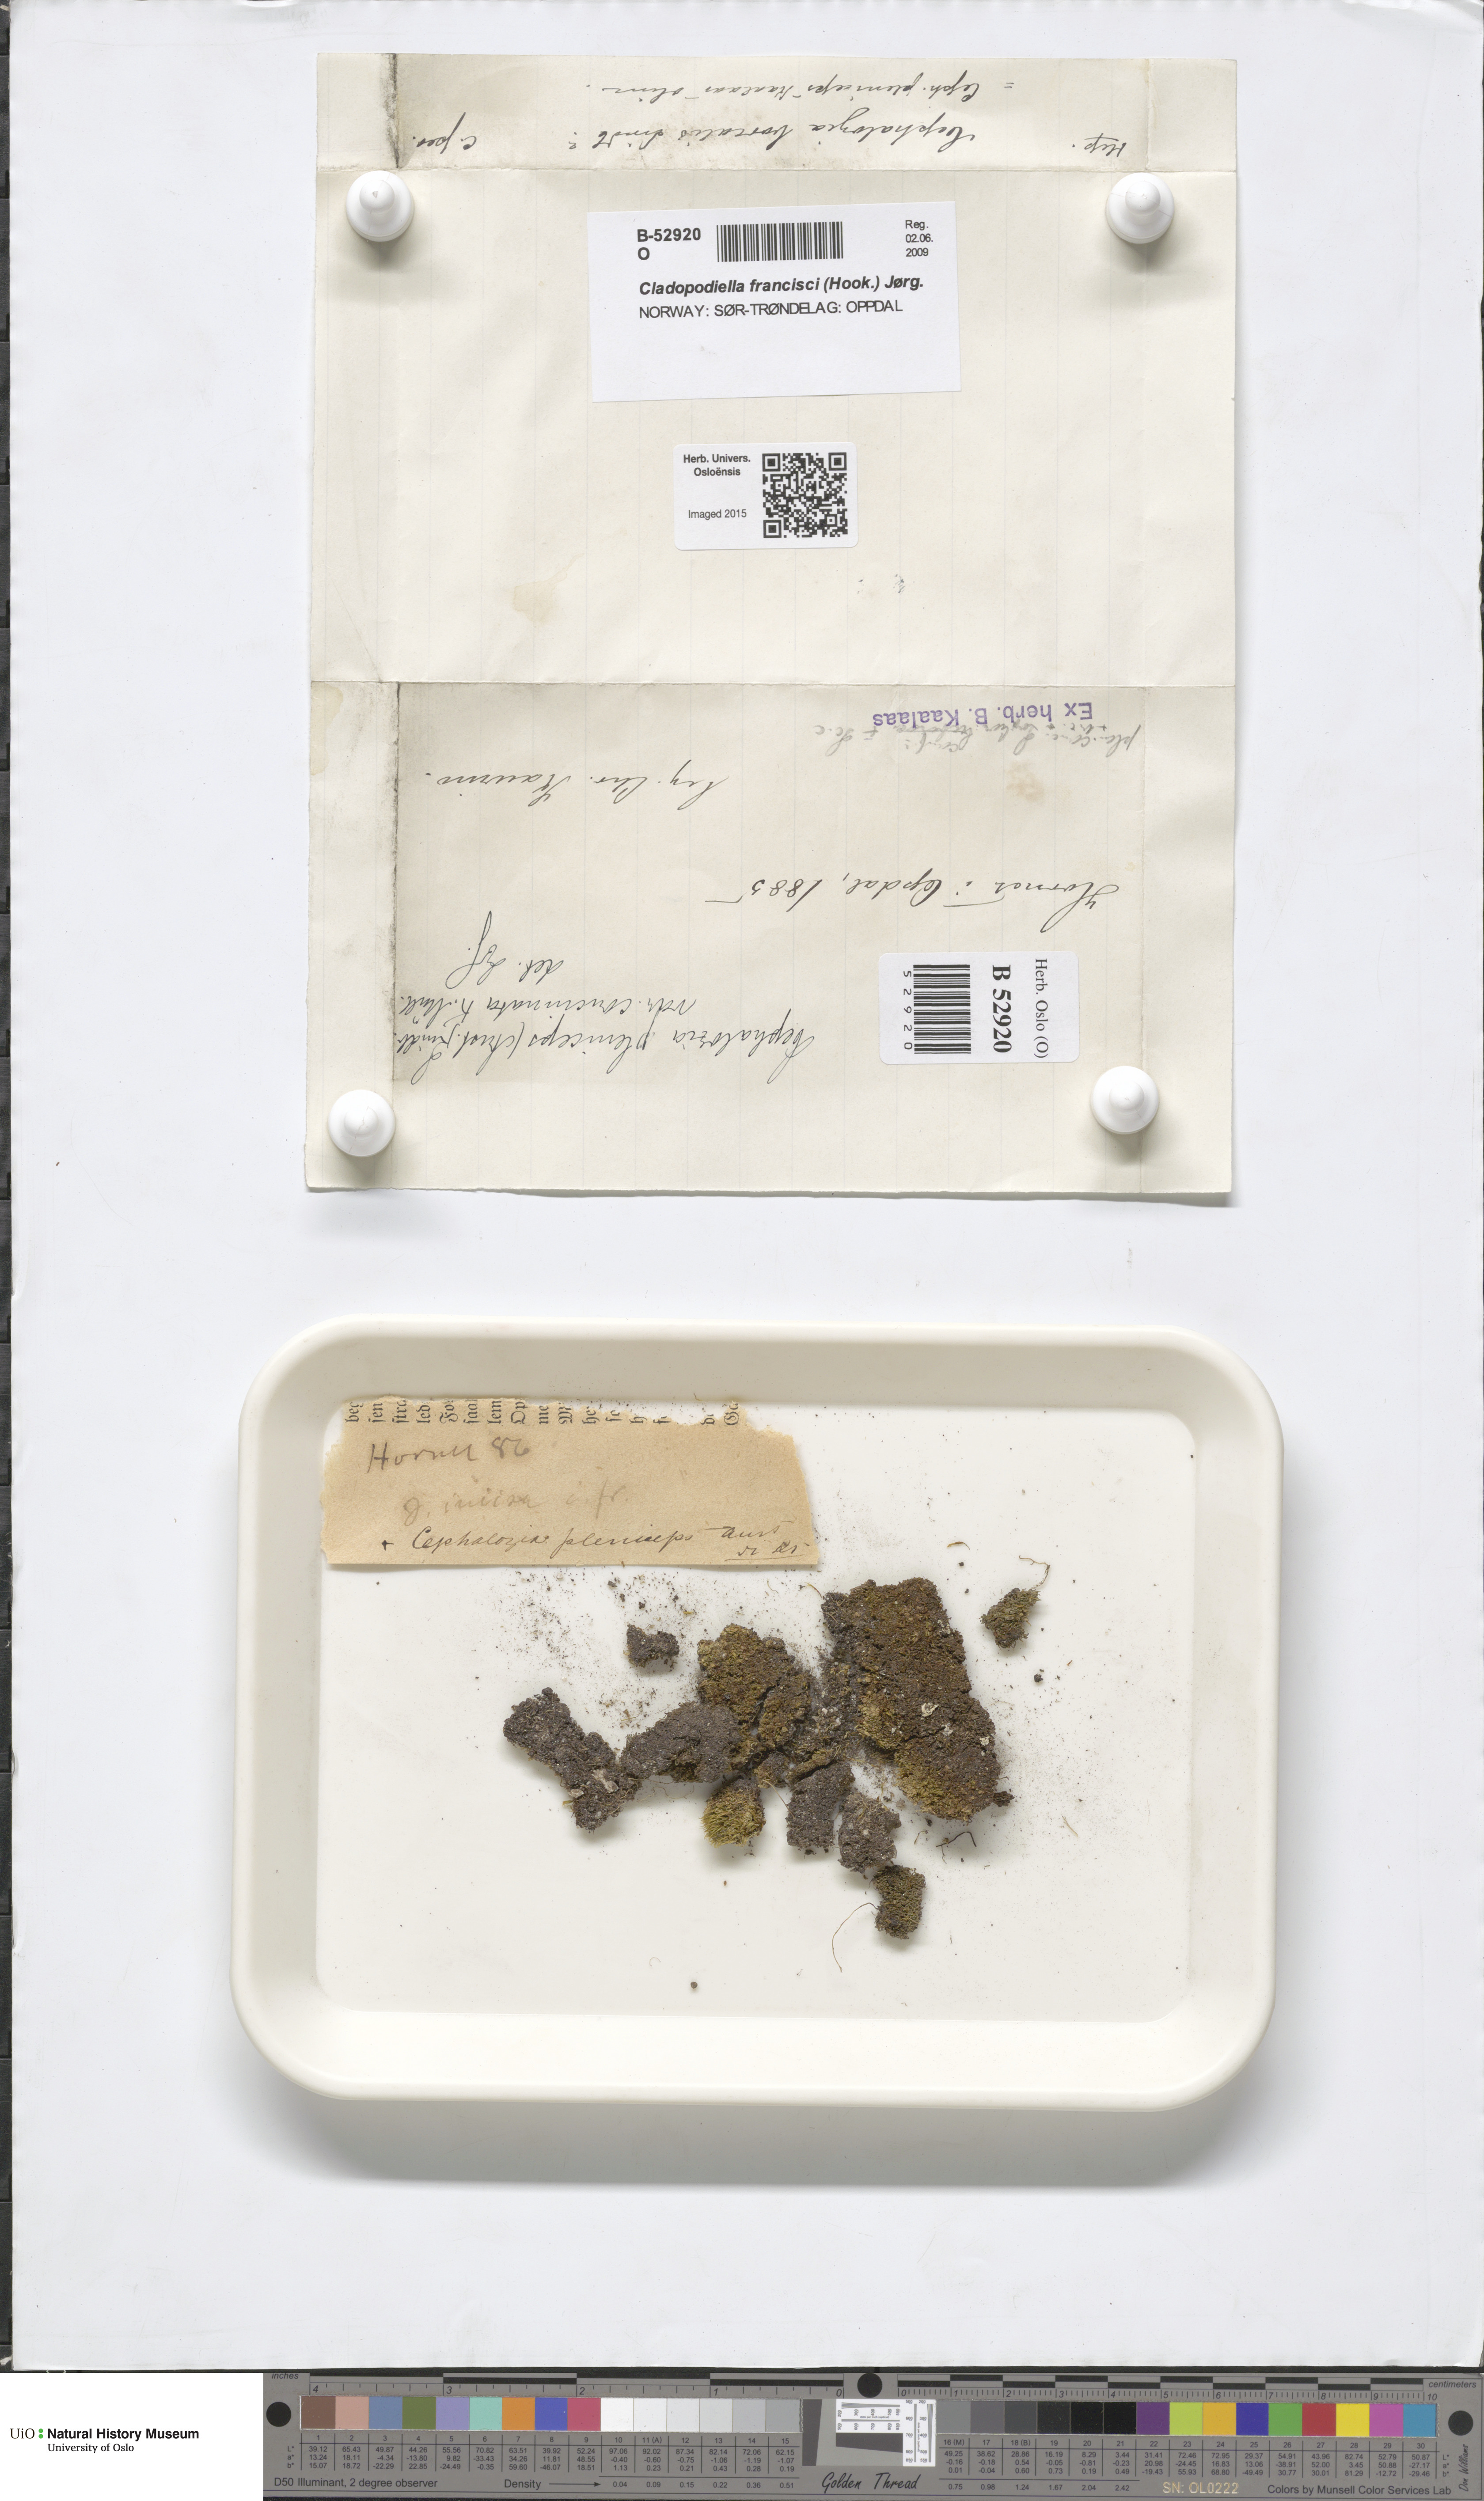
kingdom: Plantae
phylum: Marchantiophyta
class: Jungermanniopsida
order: Jungermanniales
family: Cephaloziaceae
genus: Fuscocephaloziopsis
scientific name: Fuscocephaloziopsis pleniceps
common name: Blunt pincerwort
